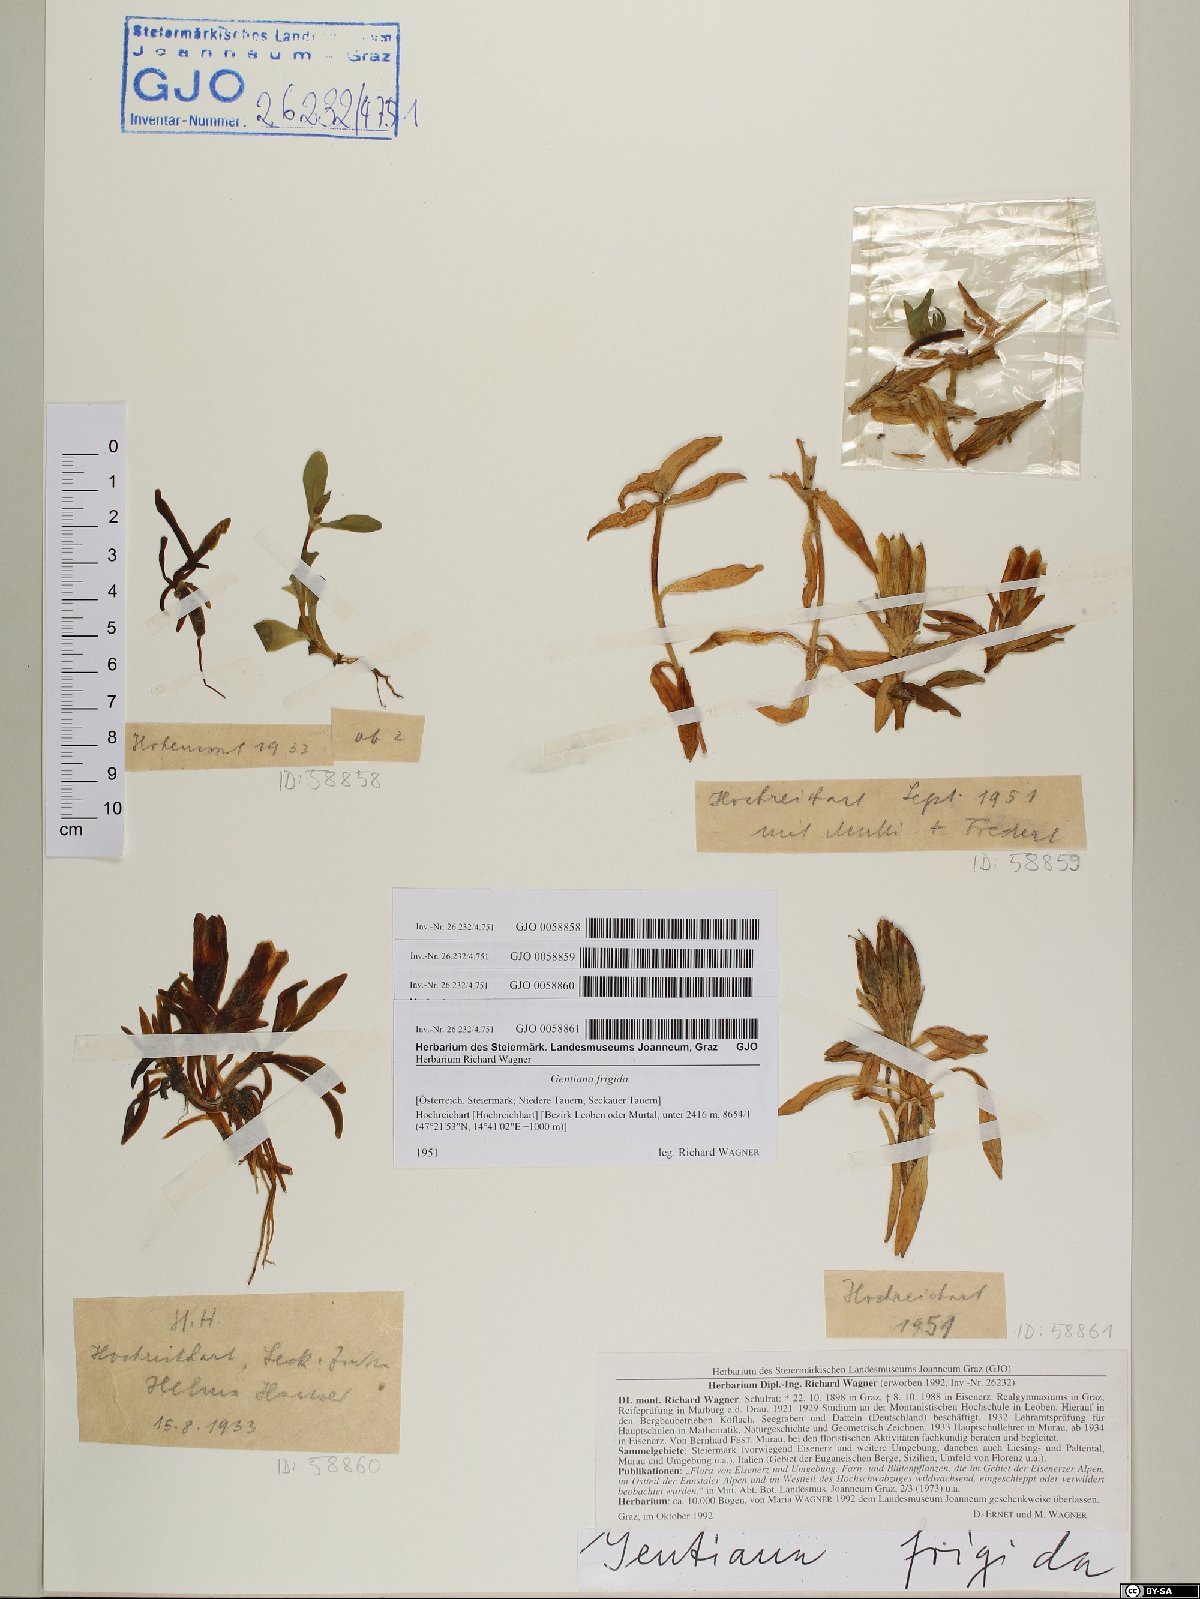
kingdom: Plantae
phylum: Tracheophyta
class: Magnoliopsida
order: Gentianales
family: Gentianaceae
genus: Gentiana
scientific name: Gentiana frigida
